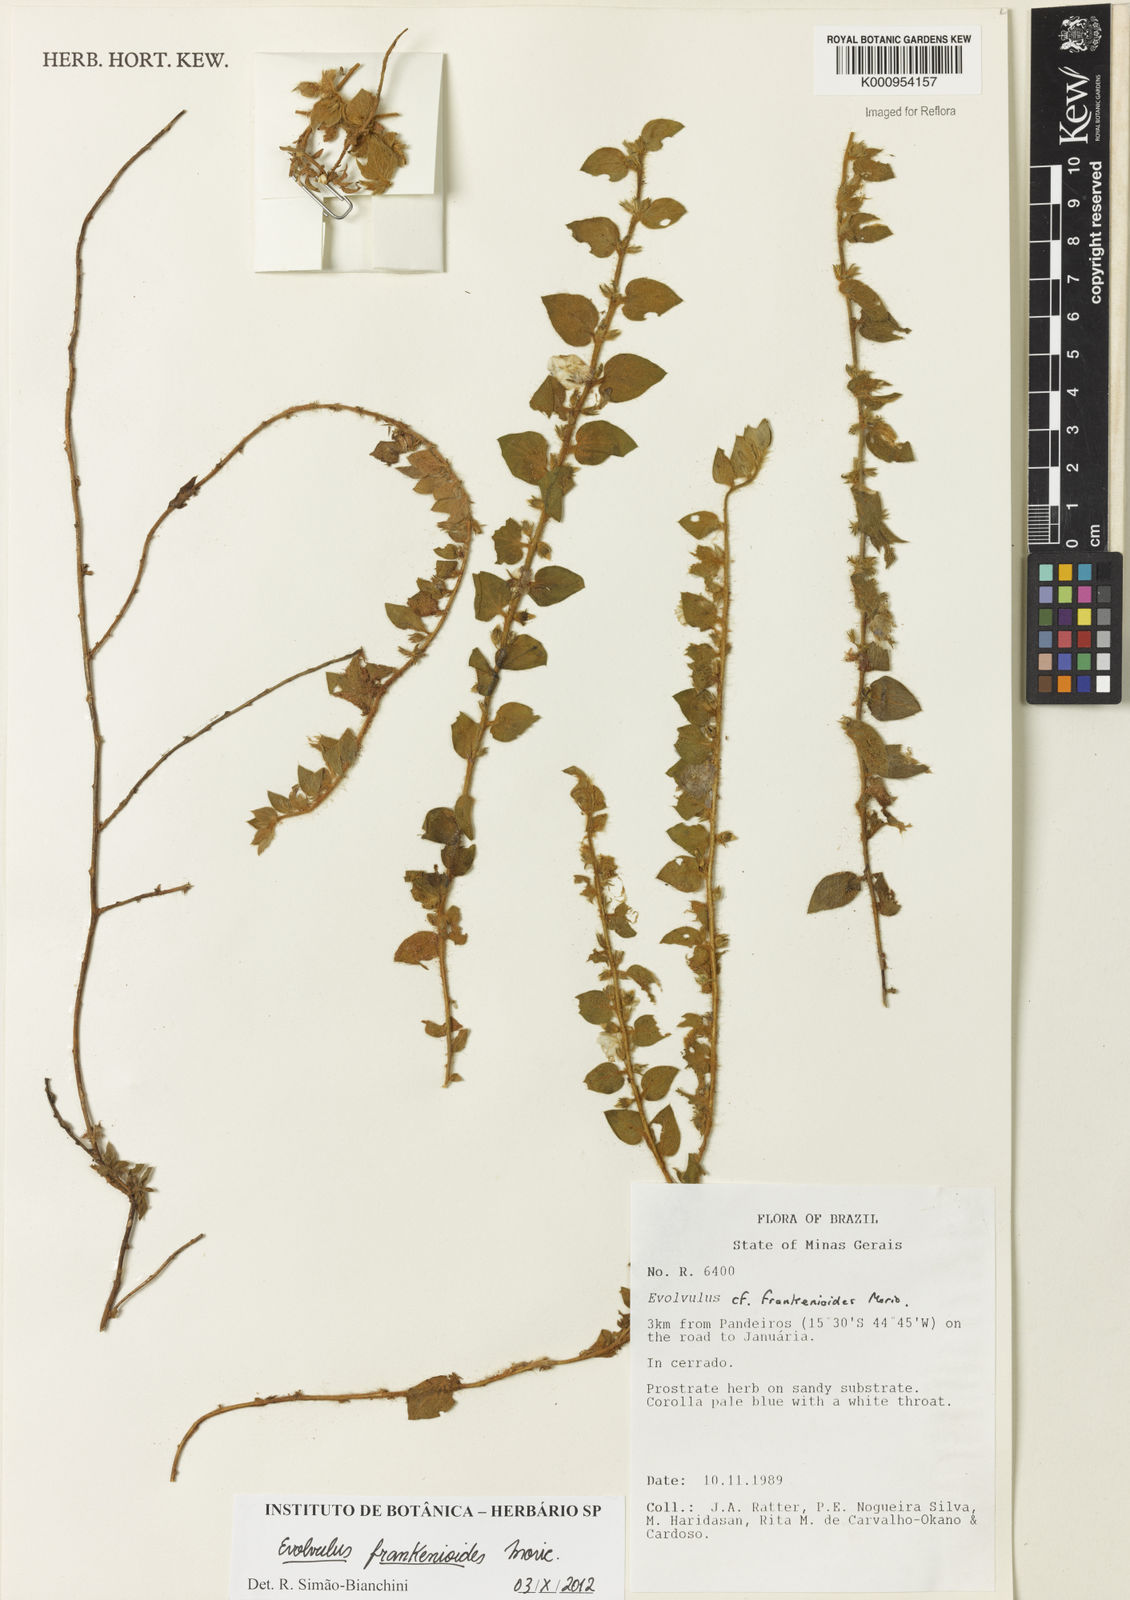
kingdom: Plantae
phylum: Tracheophyta
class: Magnoliopsida
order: Solanales
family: Convolvulaceae
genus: Evolvulus
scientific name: Evolvulus frankenioides
